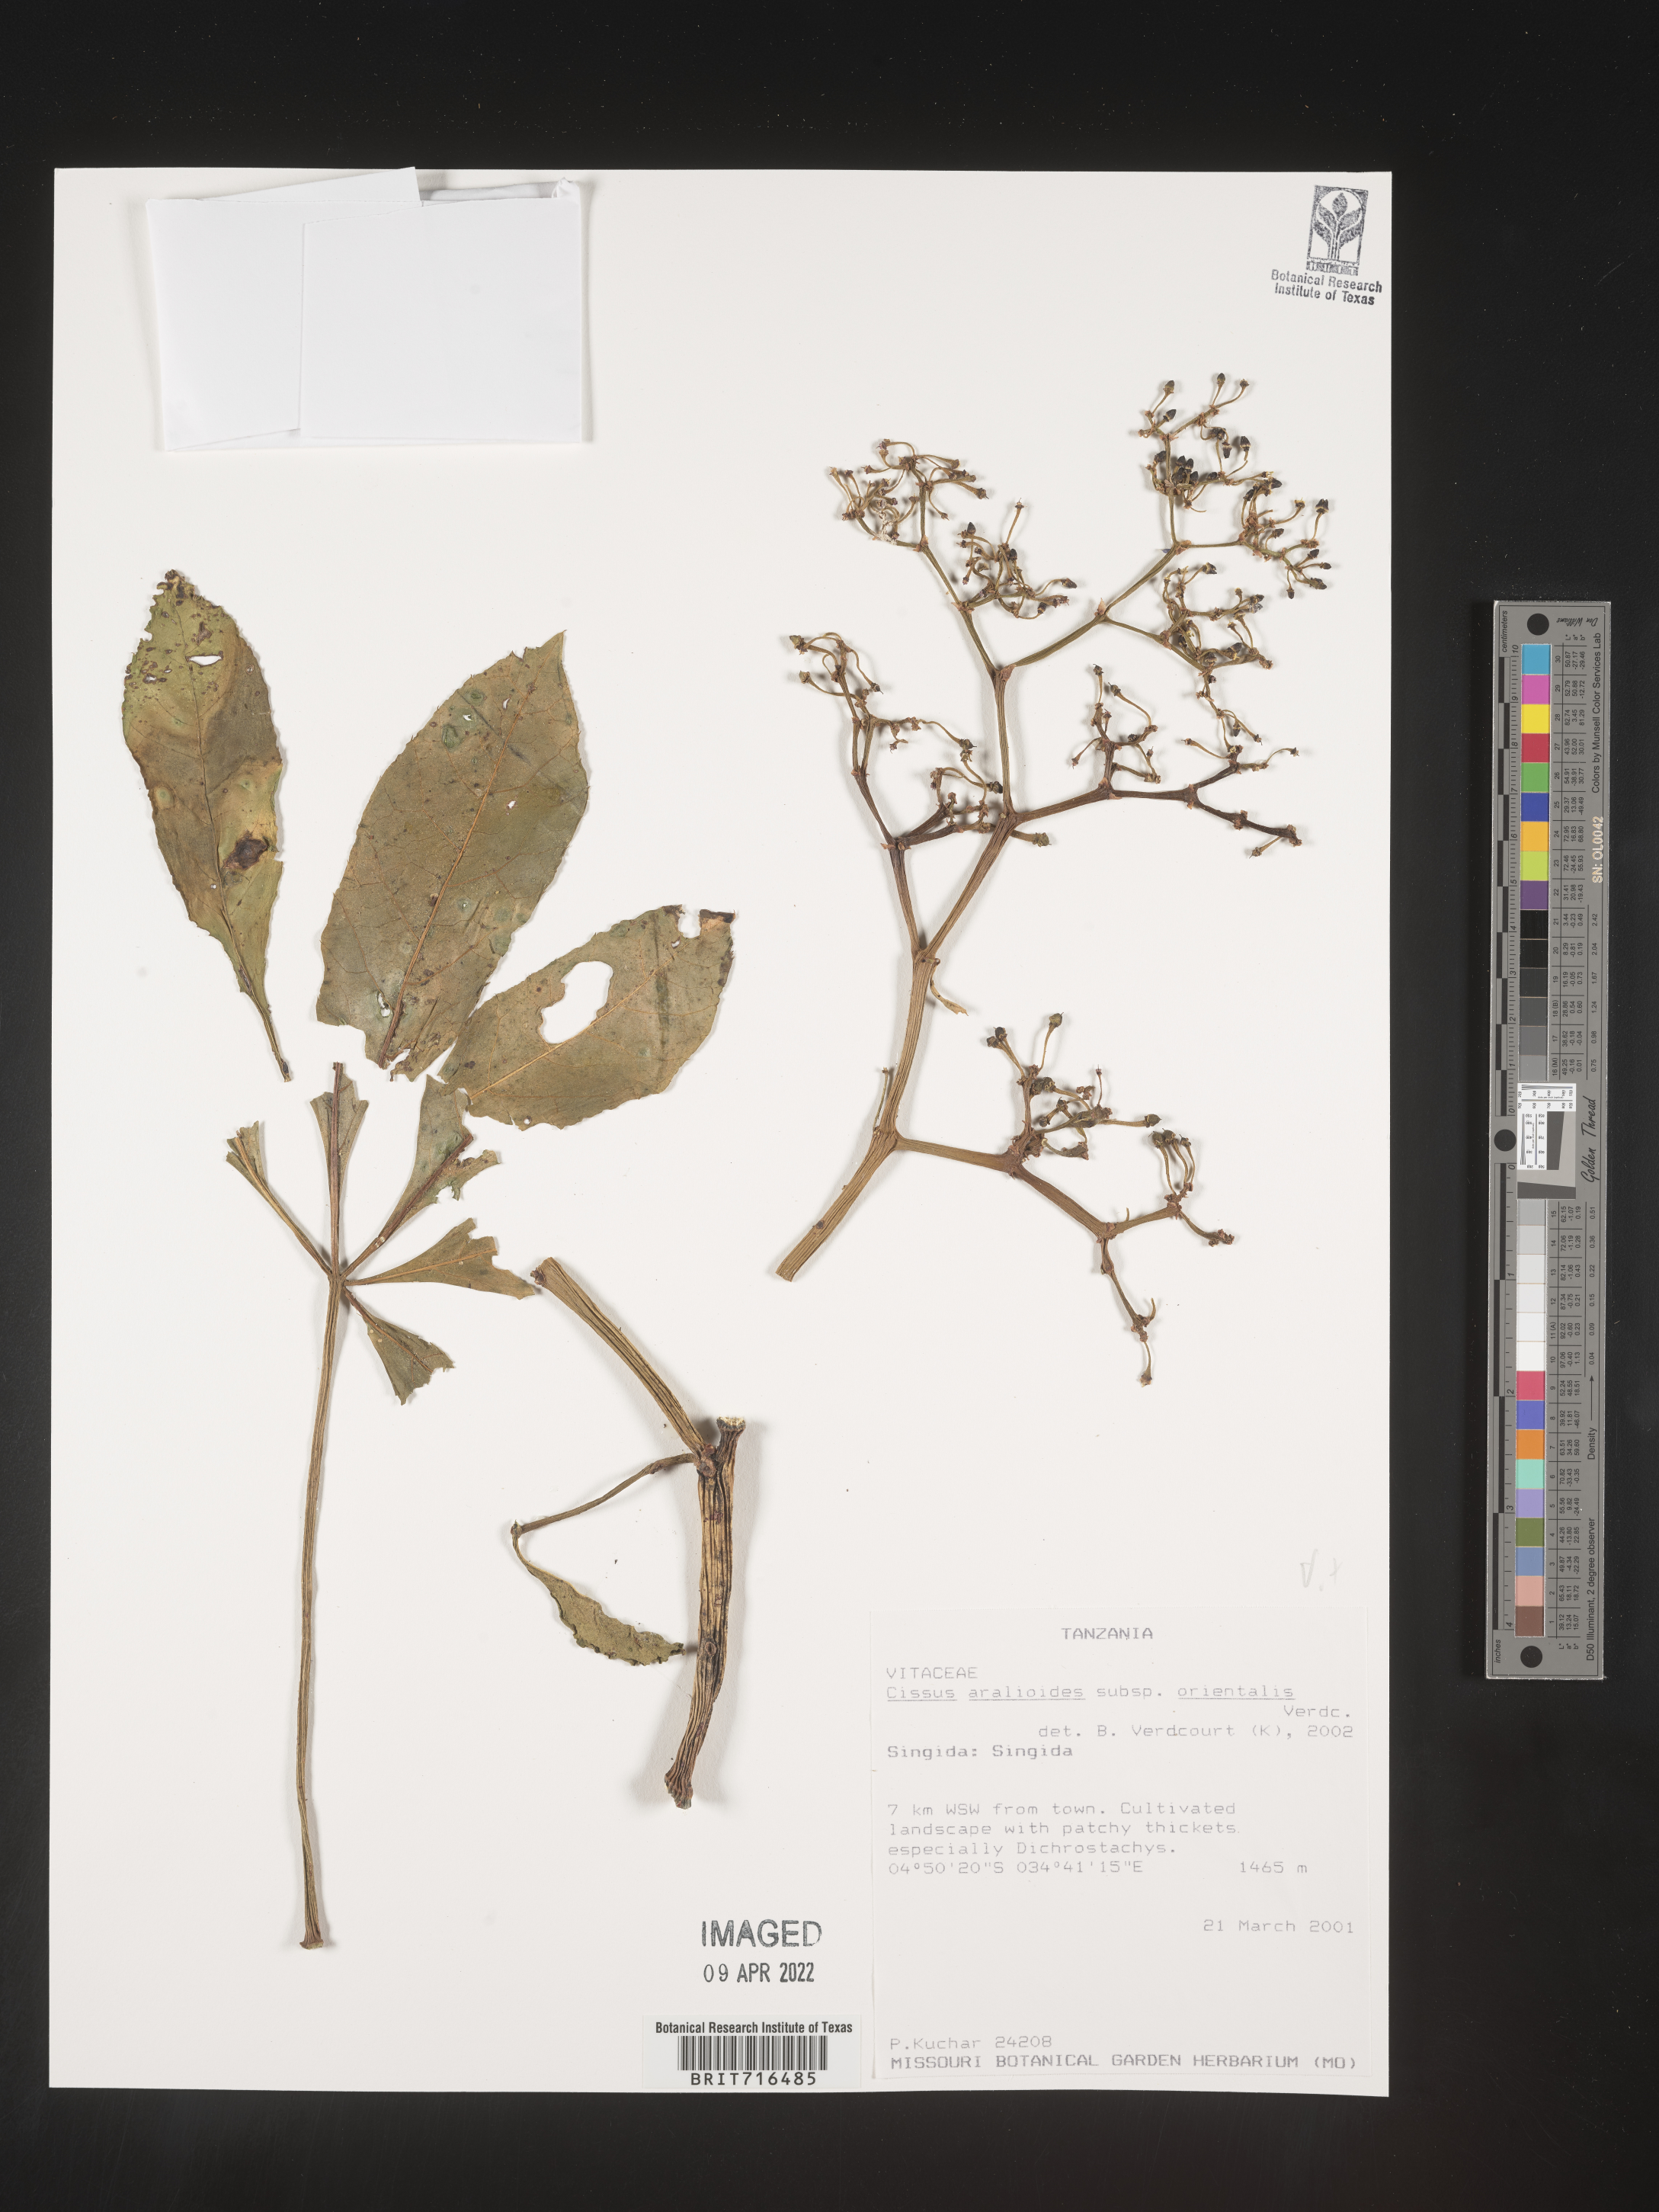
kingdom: Plantae
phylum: Tracheophyta
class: Magnoliopsida
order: Vitales
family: Vitaceae
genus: Cissus
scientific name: Cissus
